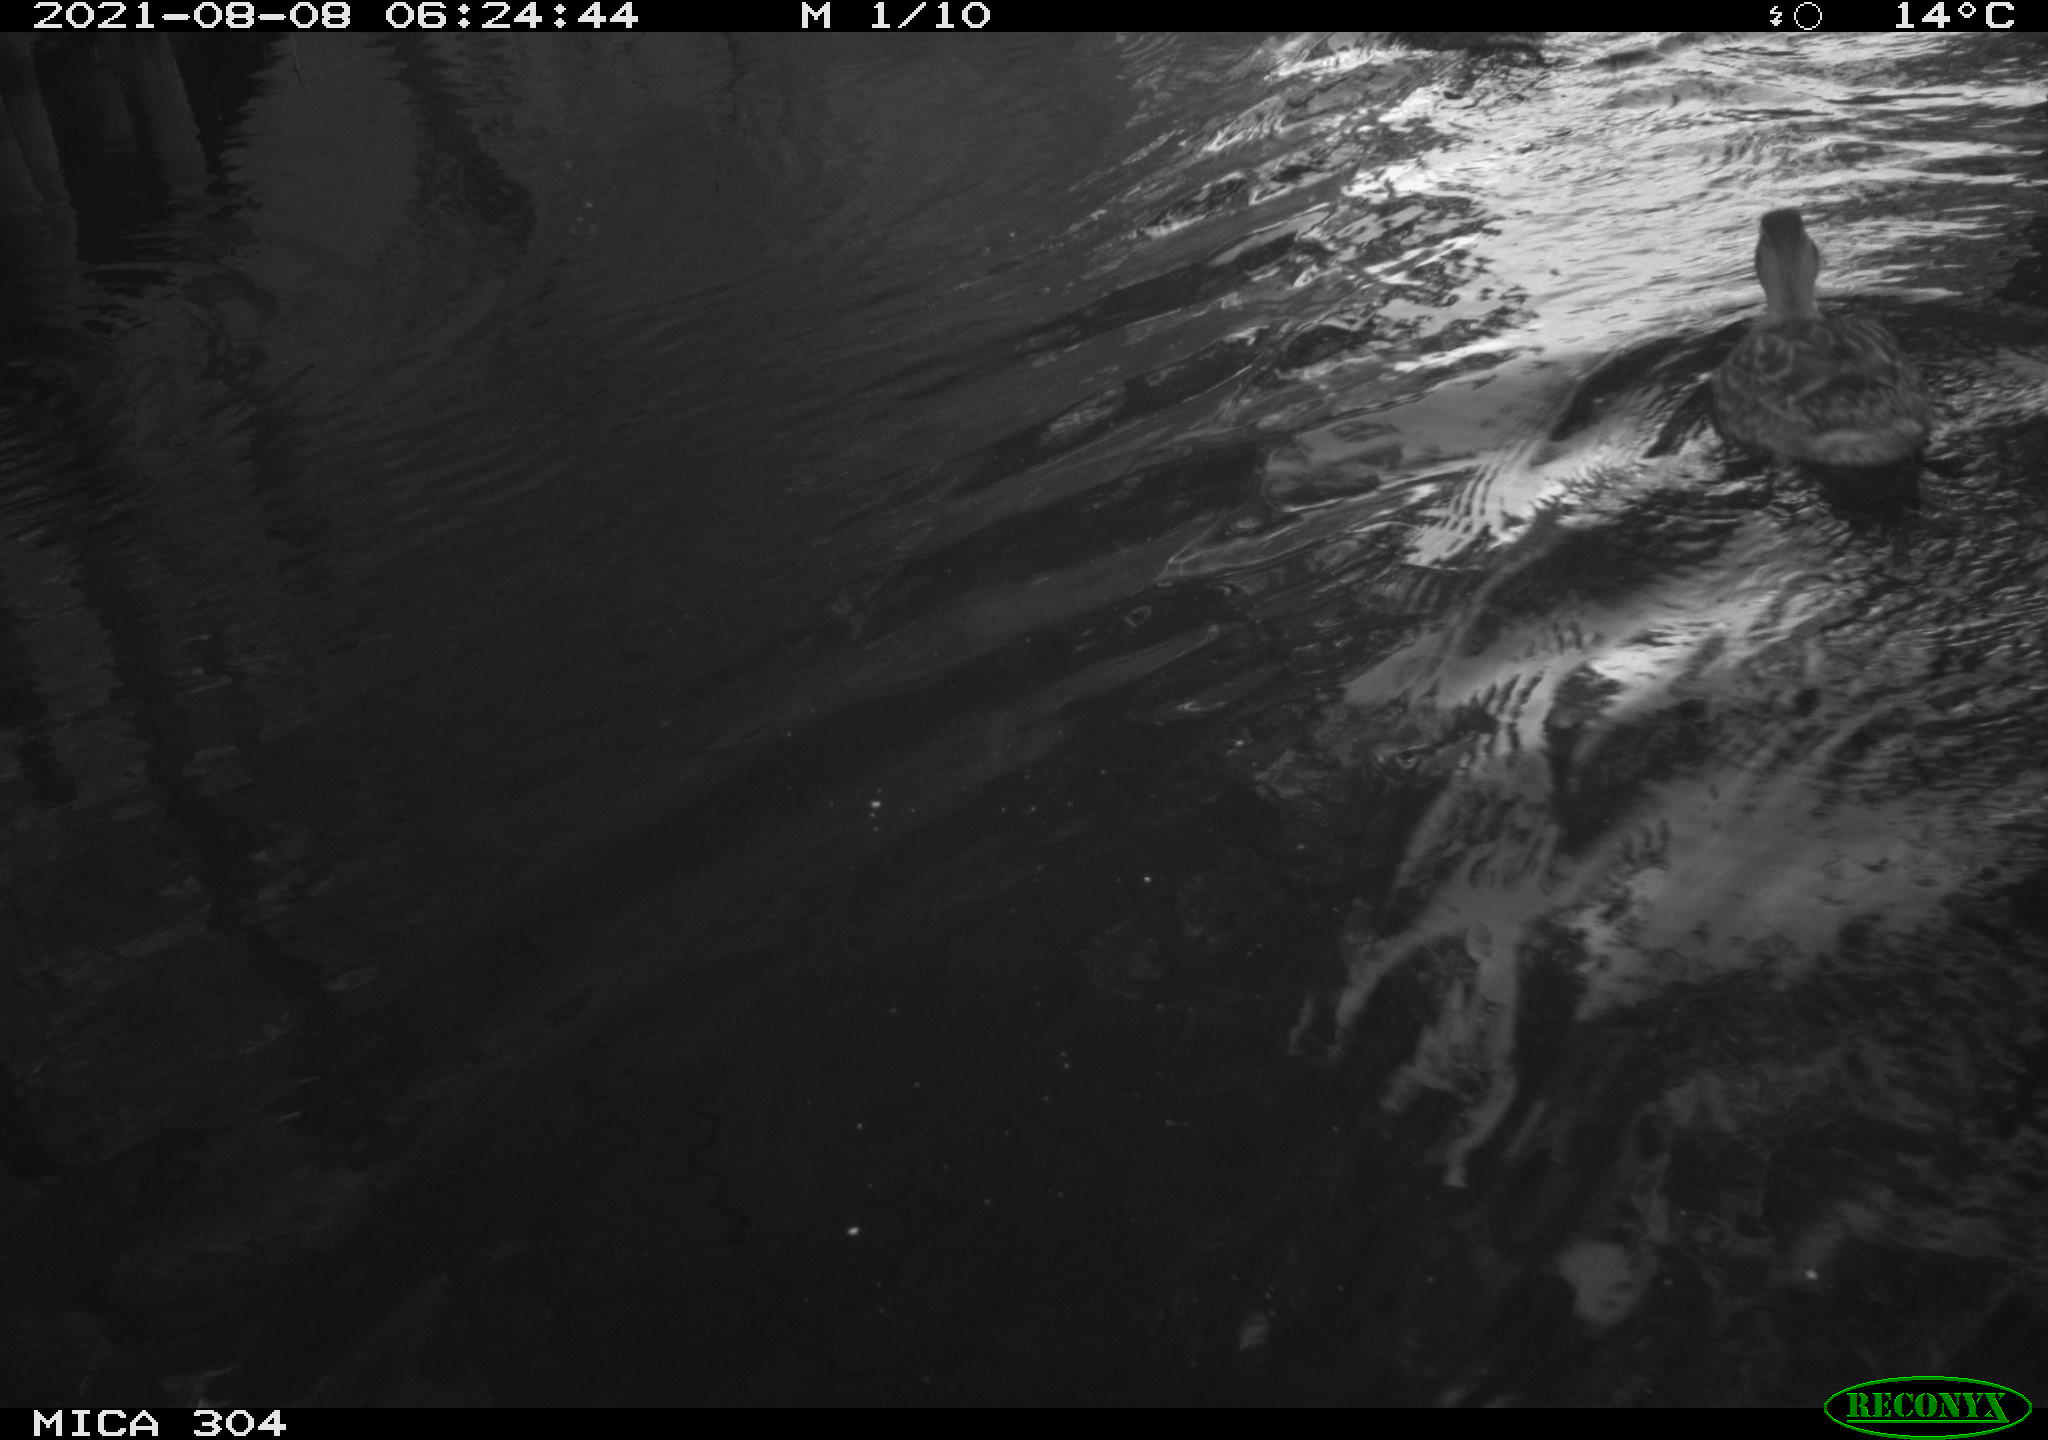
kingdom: Animalia
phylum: Chordata
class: Aves
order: Anseriformes
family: Anatidae
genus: Anas
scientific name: Anas platyrhynchos
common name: Mallard
